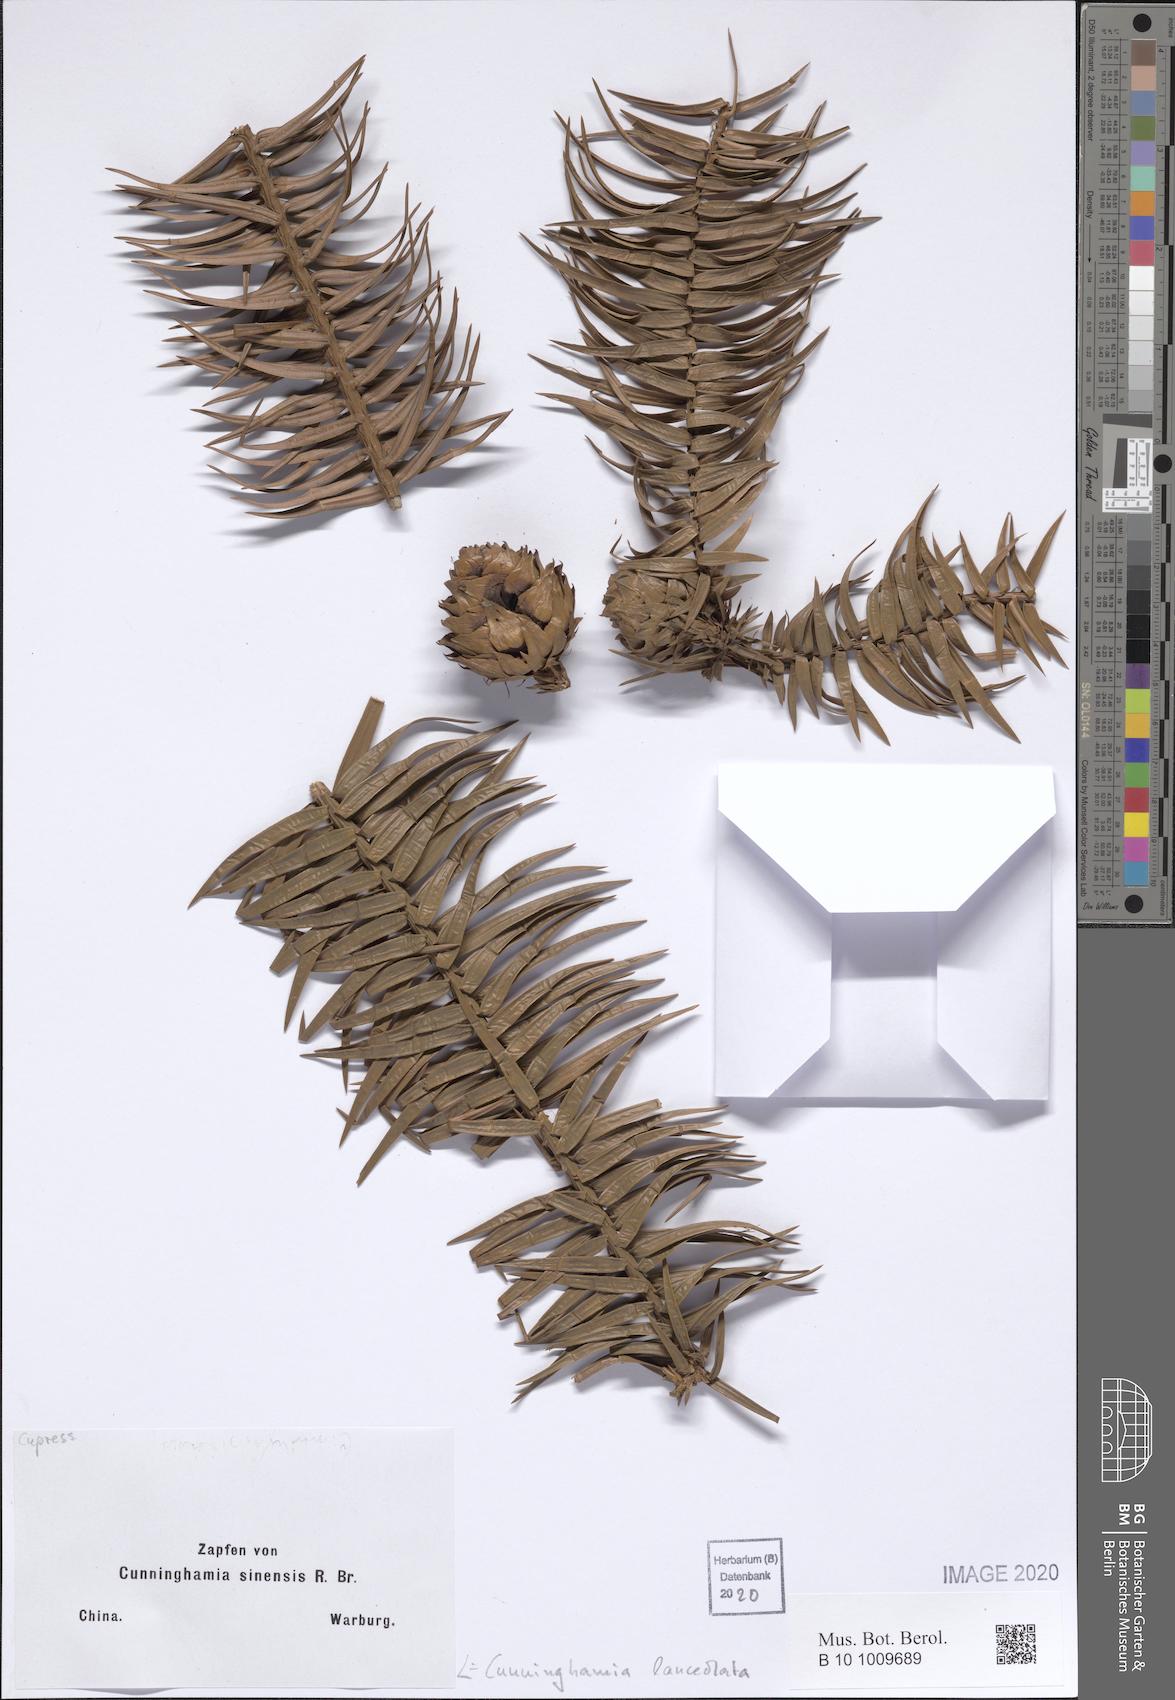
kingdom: Plantae
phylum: Tracheophyta
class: Pinopsida
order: Pinales
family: Cupressaceae
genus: Cunninghamia
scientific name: Cunninghamia lanceolata
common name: Chinese fir
